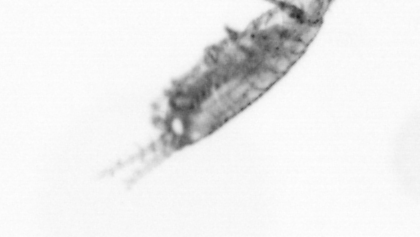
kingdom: Animalia
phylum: Arthropoda
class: Copepoda
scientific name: Copepoda
